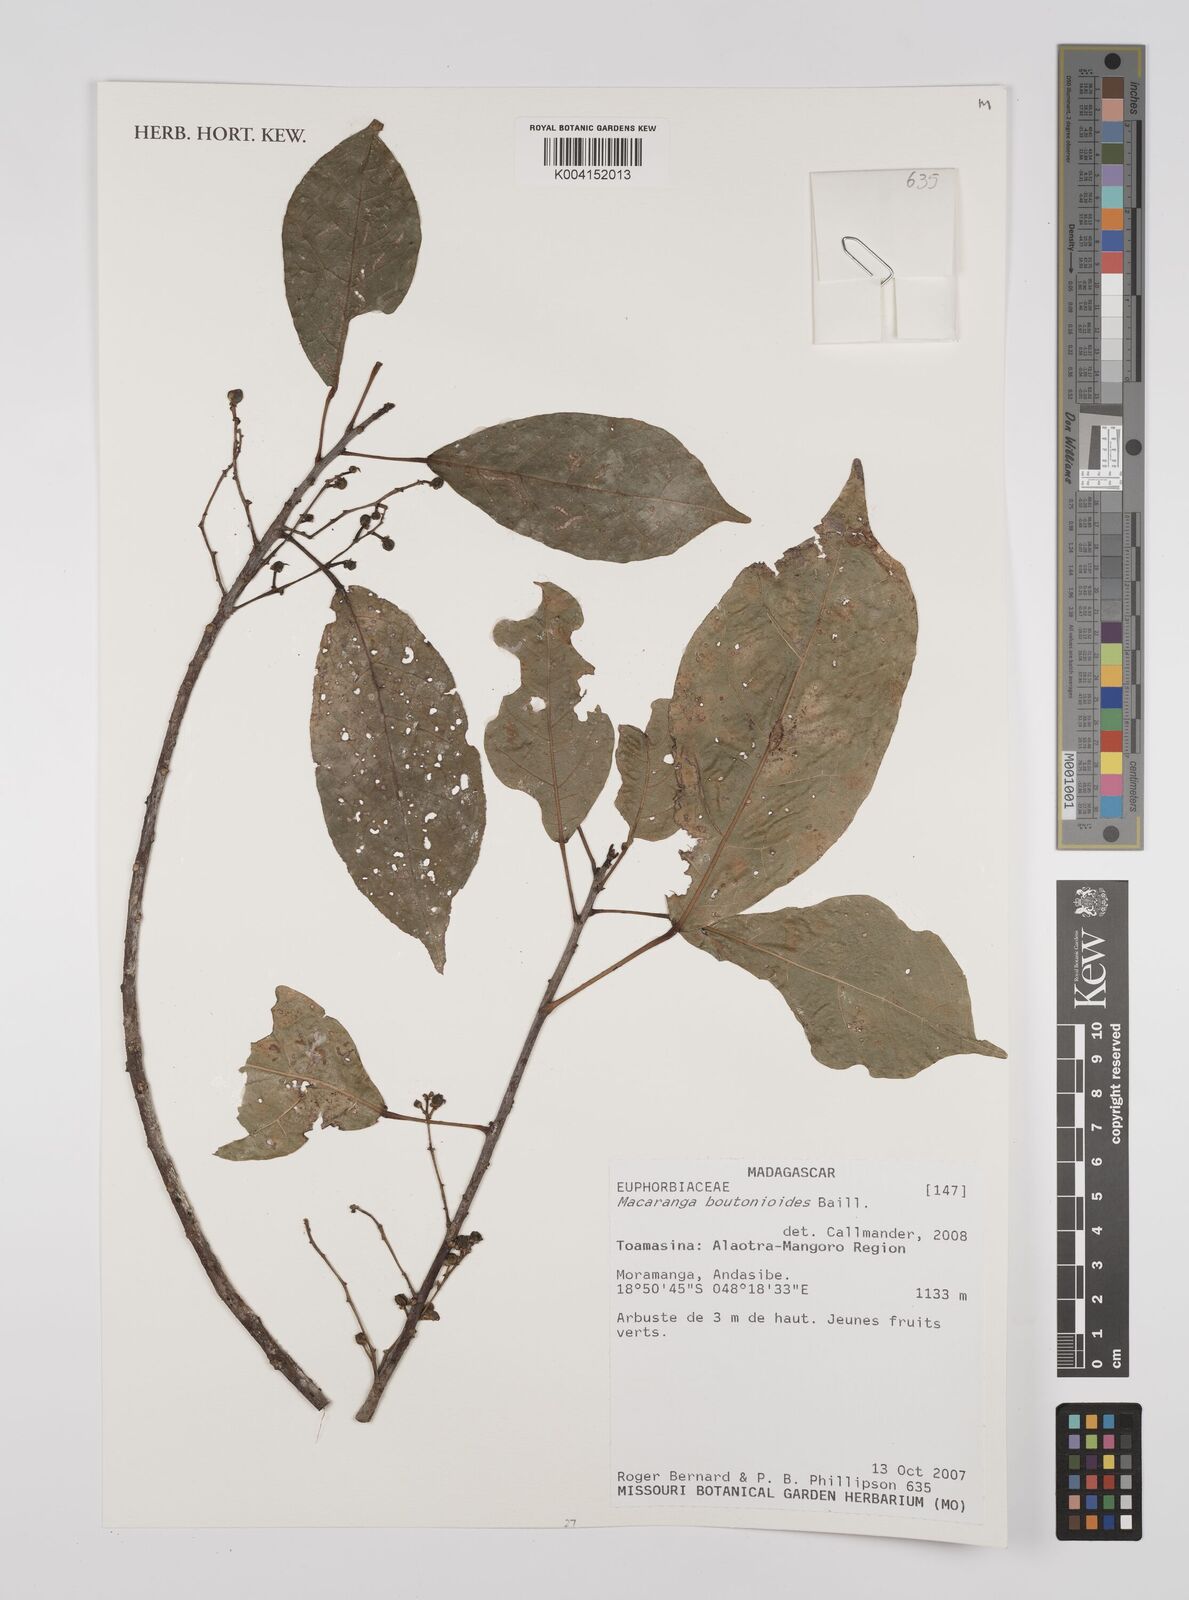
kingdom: Plantae
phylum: Tracheophyta
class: Magnoliopsida
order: Malpighiales
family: Euphorbiaceae
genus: Macaranga
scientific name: Macaranga boutonioides
